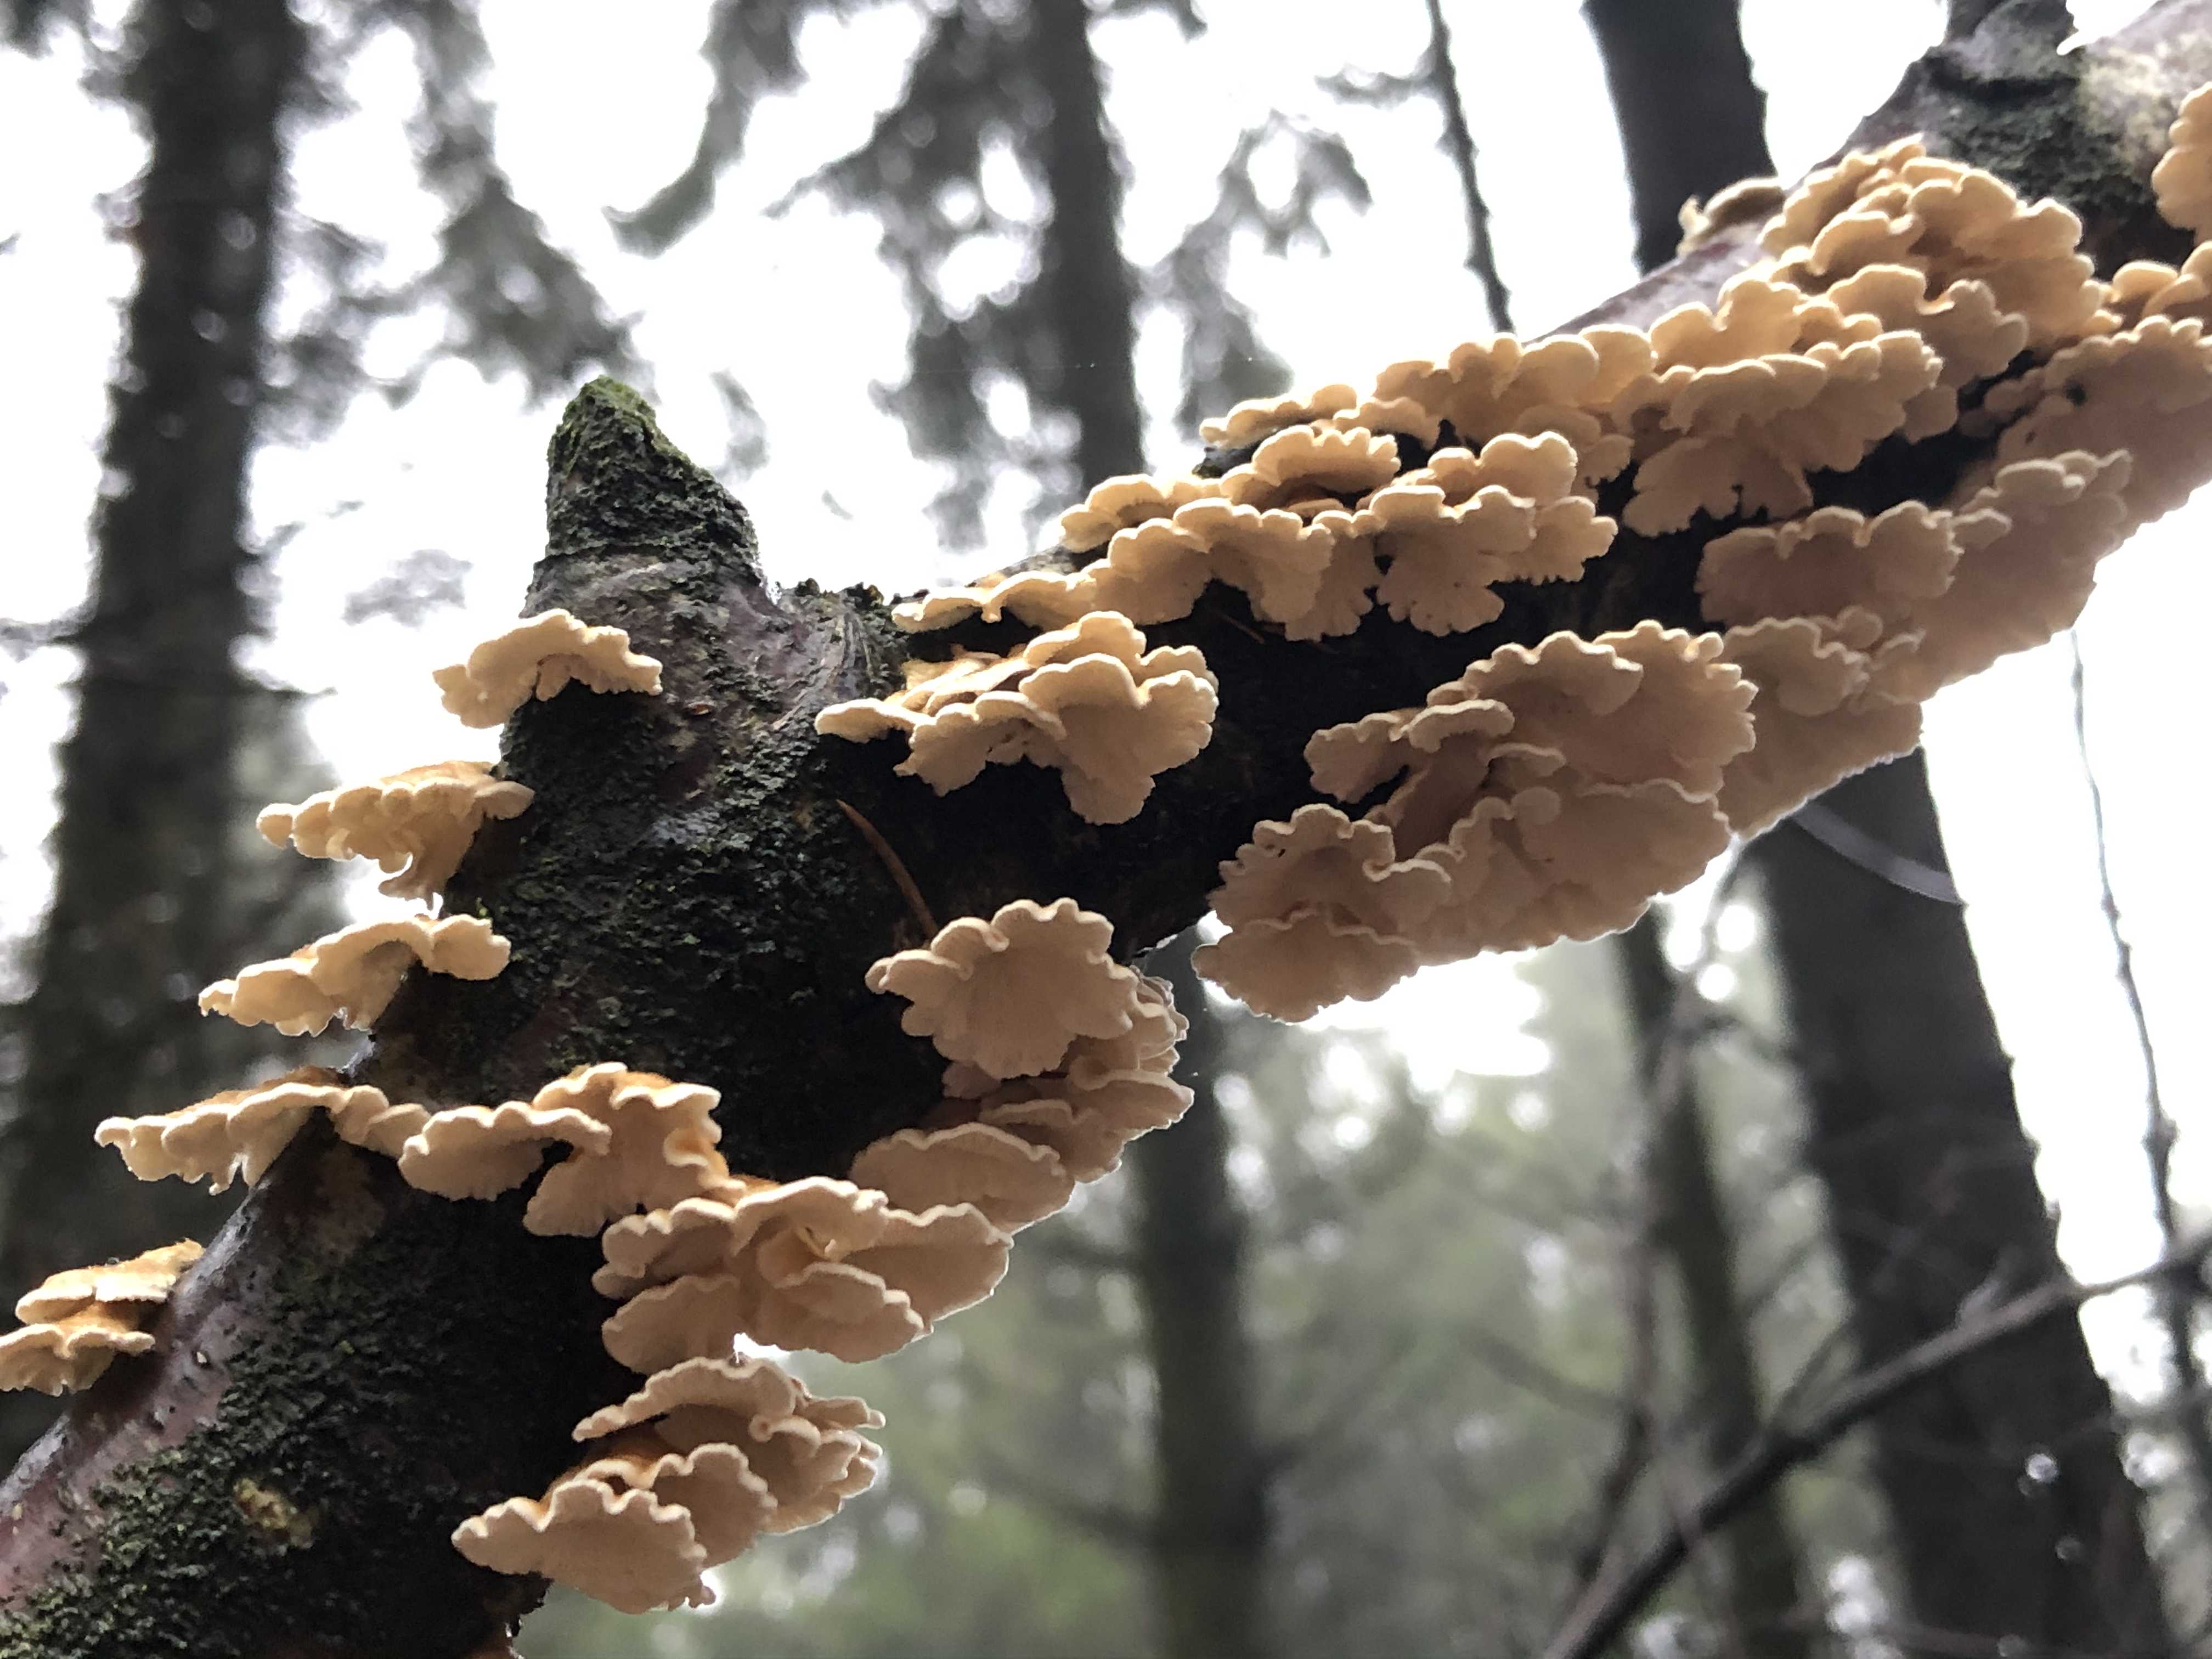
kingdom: Fungi
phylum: Basidiomycota
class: Agaricomycetes
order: Amylocorticiales
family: Amylocorticiaceae
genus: Plicaturopsis
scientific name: Plicaturopsis crispa
